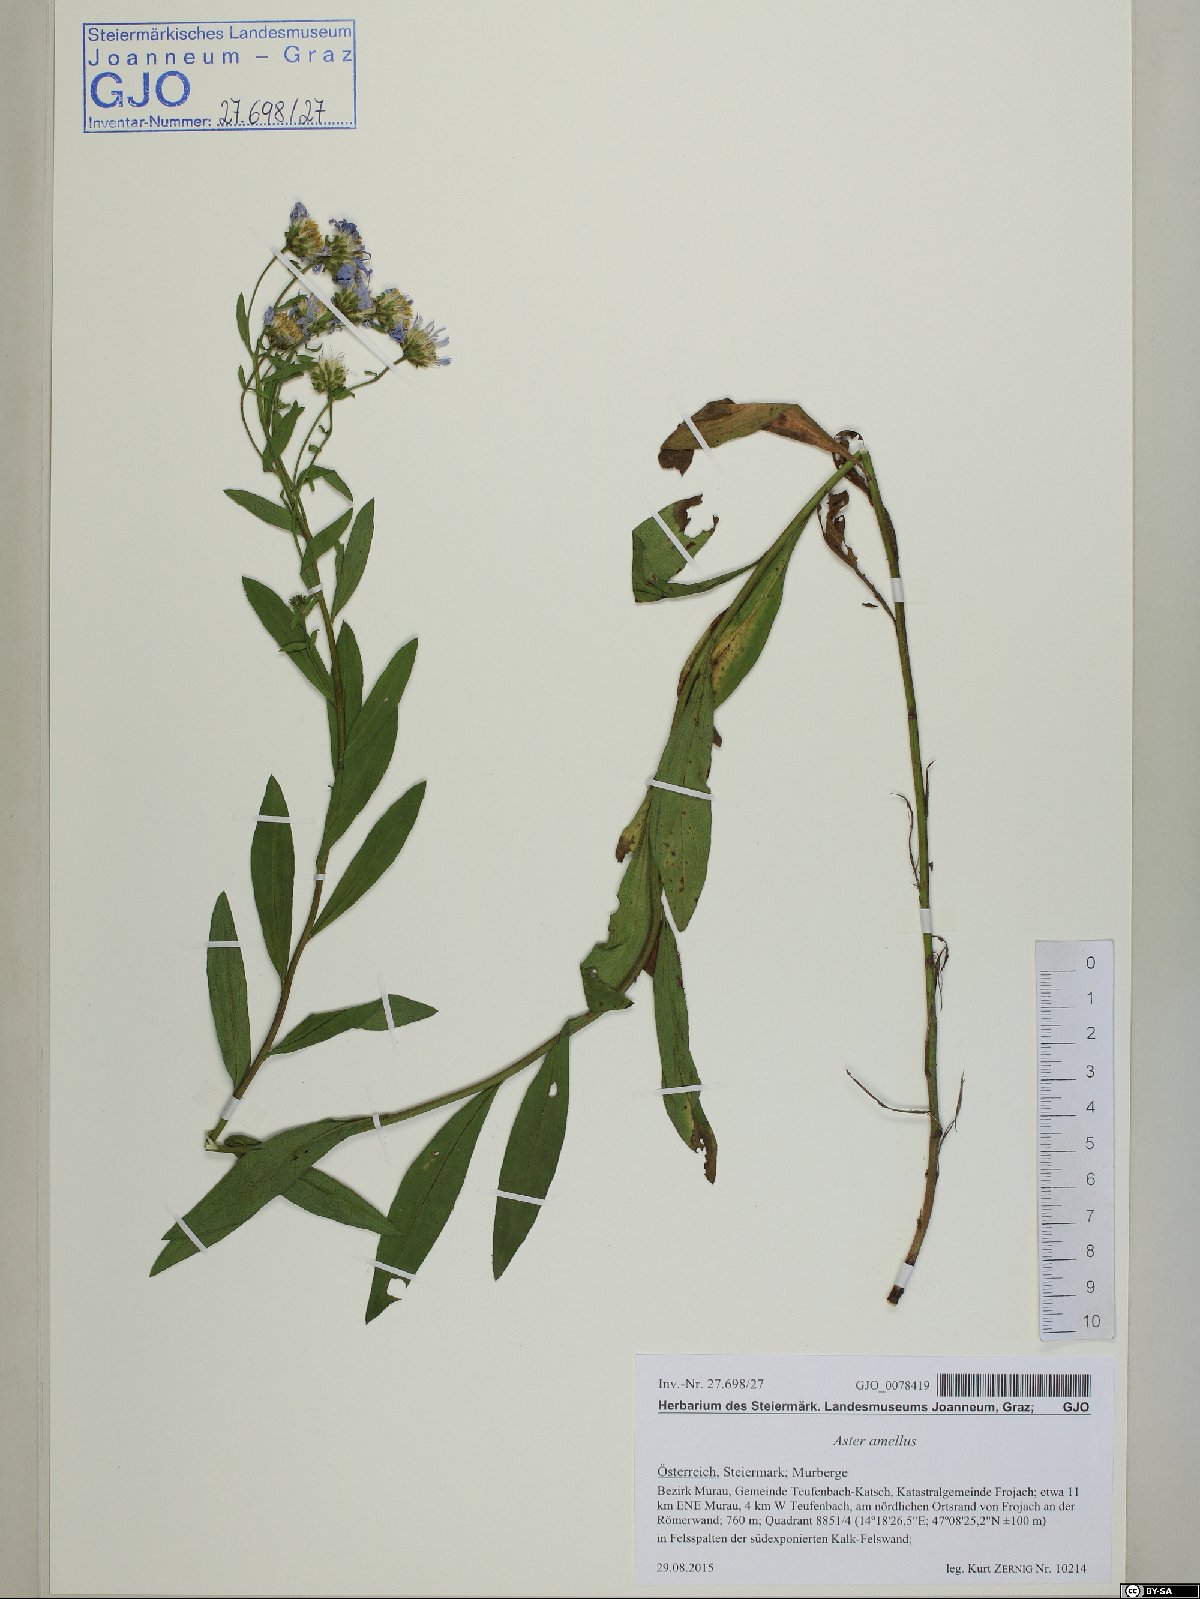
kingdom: Plantae
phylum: Tracheophyta
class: Magnoliopsida
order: Asterales
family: Asteraceae
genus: Aster
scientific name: Aster amellus
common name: European michaelmas daisy
